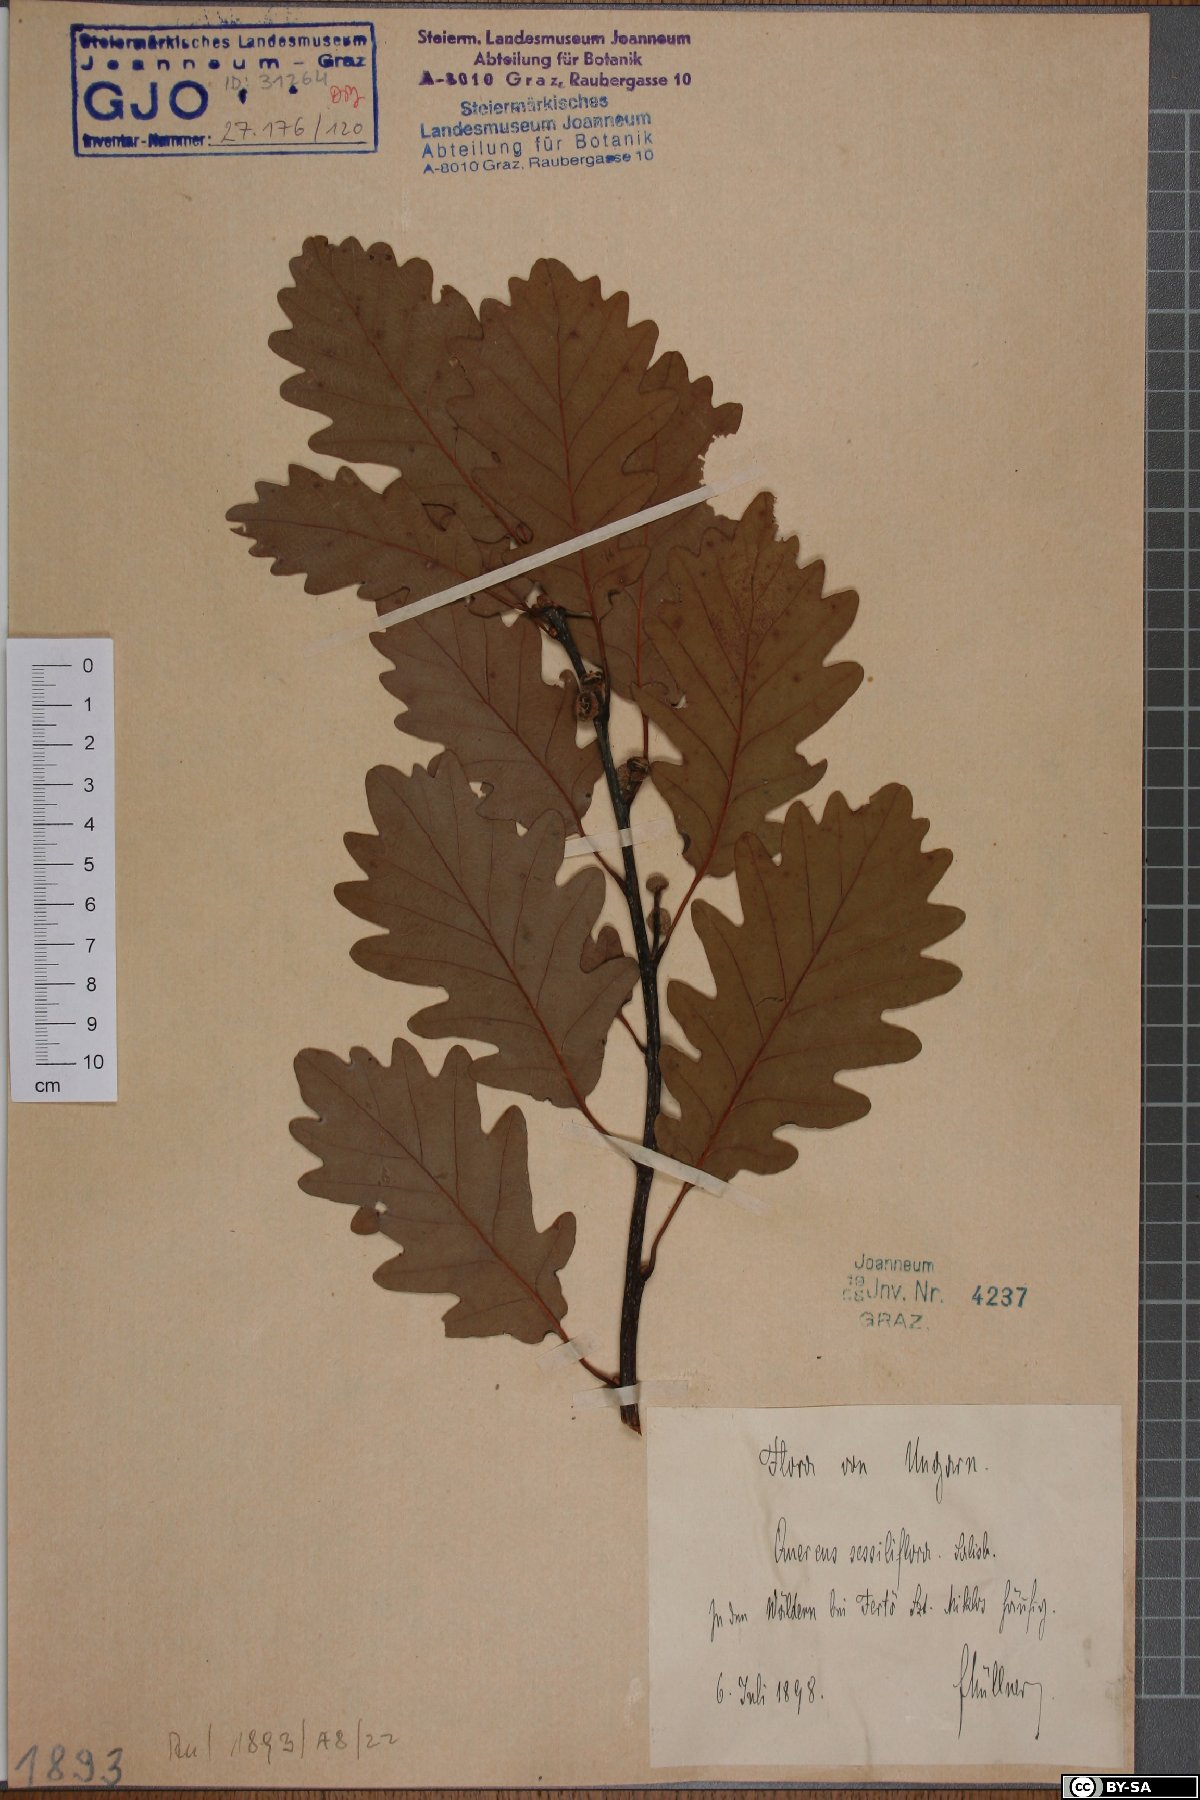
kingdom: Plantae
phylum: Tracheophyta
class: Magnoliopsida
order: Fagales
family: Fagaceae
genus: Quercus
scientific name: Quercus petraea
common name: Sessile oak
